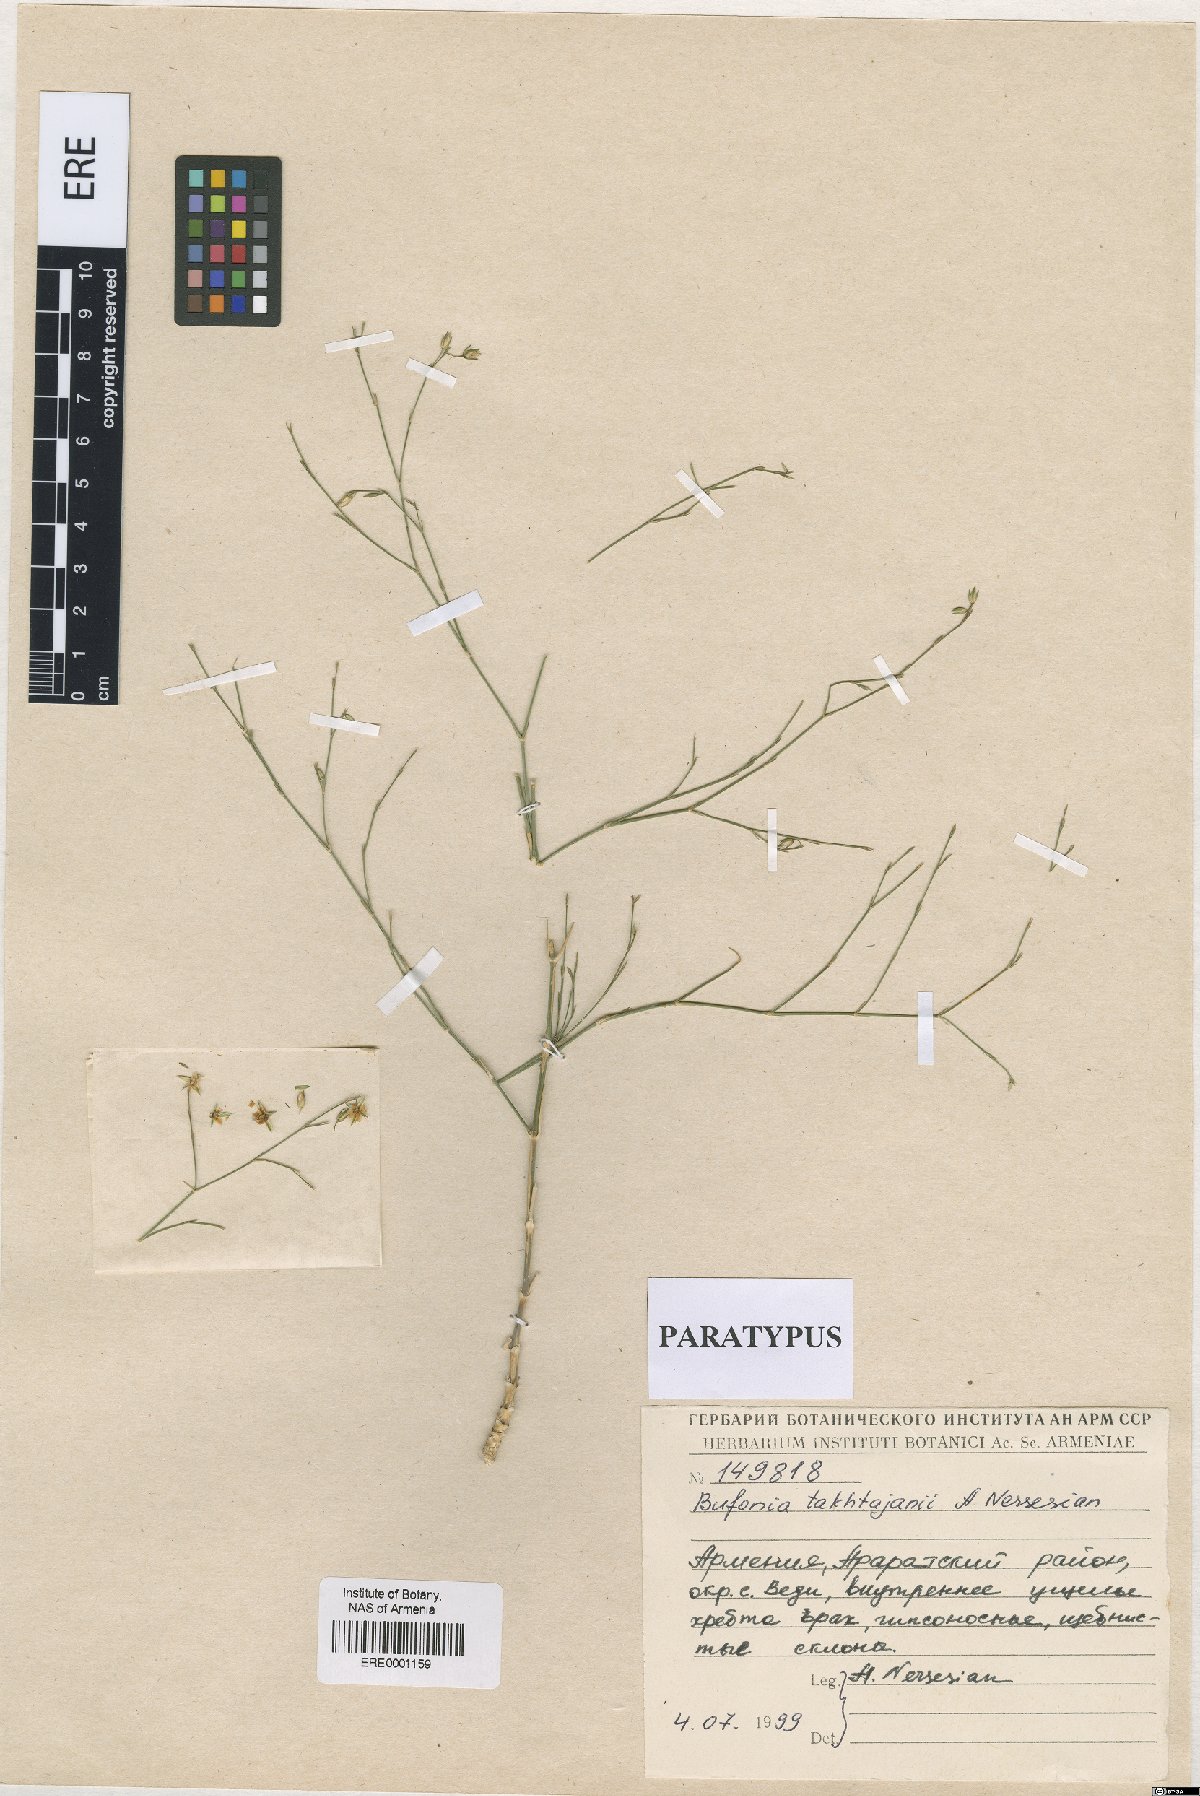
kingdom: Plantae
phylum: Tracheophyta
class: Magnoliopsida
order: Caryophyllales
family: Caryophyllaceae
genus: Bufonia
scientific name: Bufonia takhtajanii
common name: Takhtadjyan's bufonia
